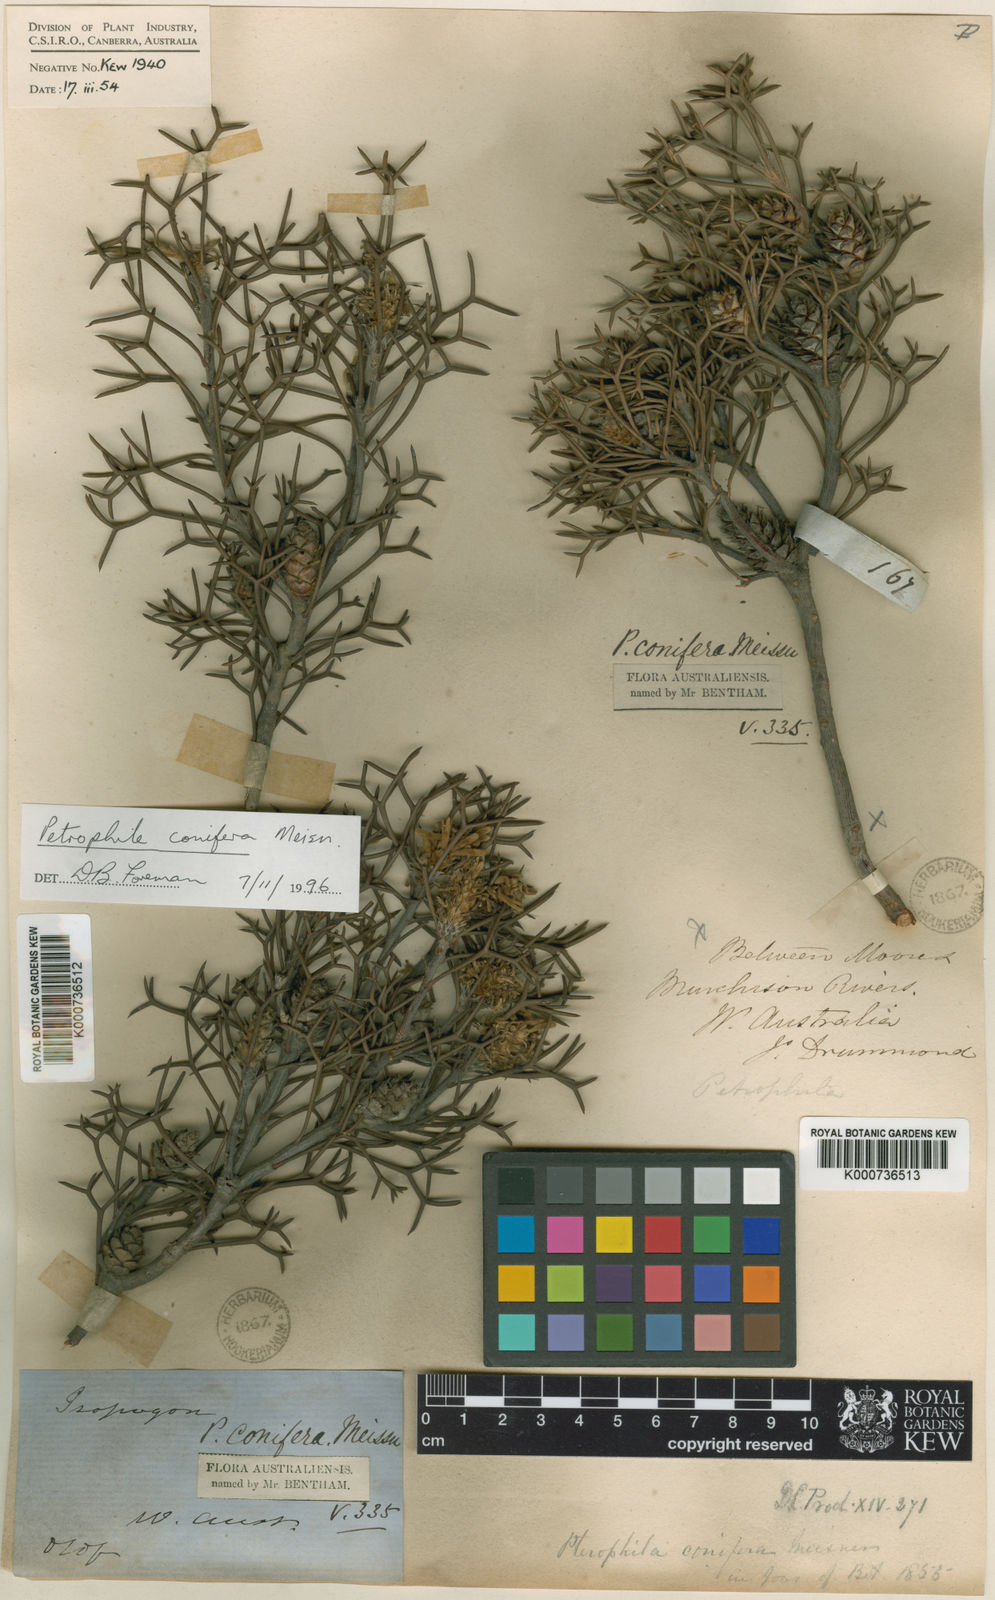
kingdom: Plantae
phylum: Tracheophyta
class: Magnoliopsida
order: Proteales
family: Proteaceae
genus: Petrophile
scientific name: Petrophile conifera
